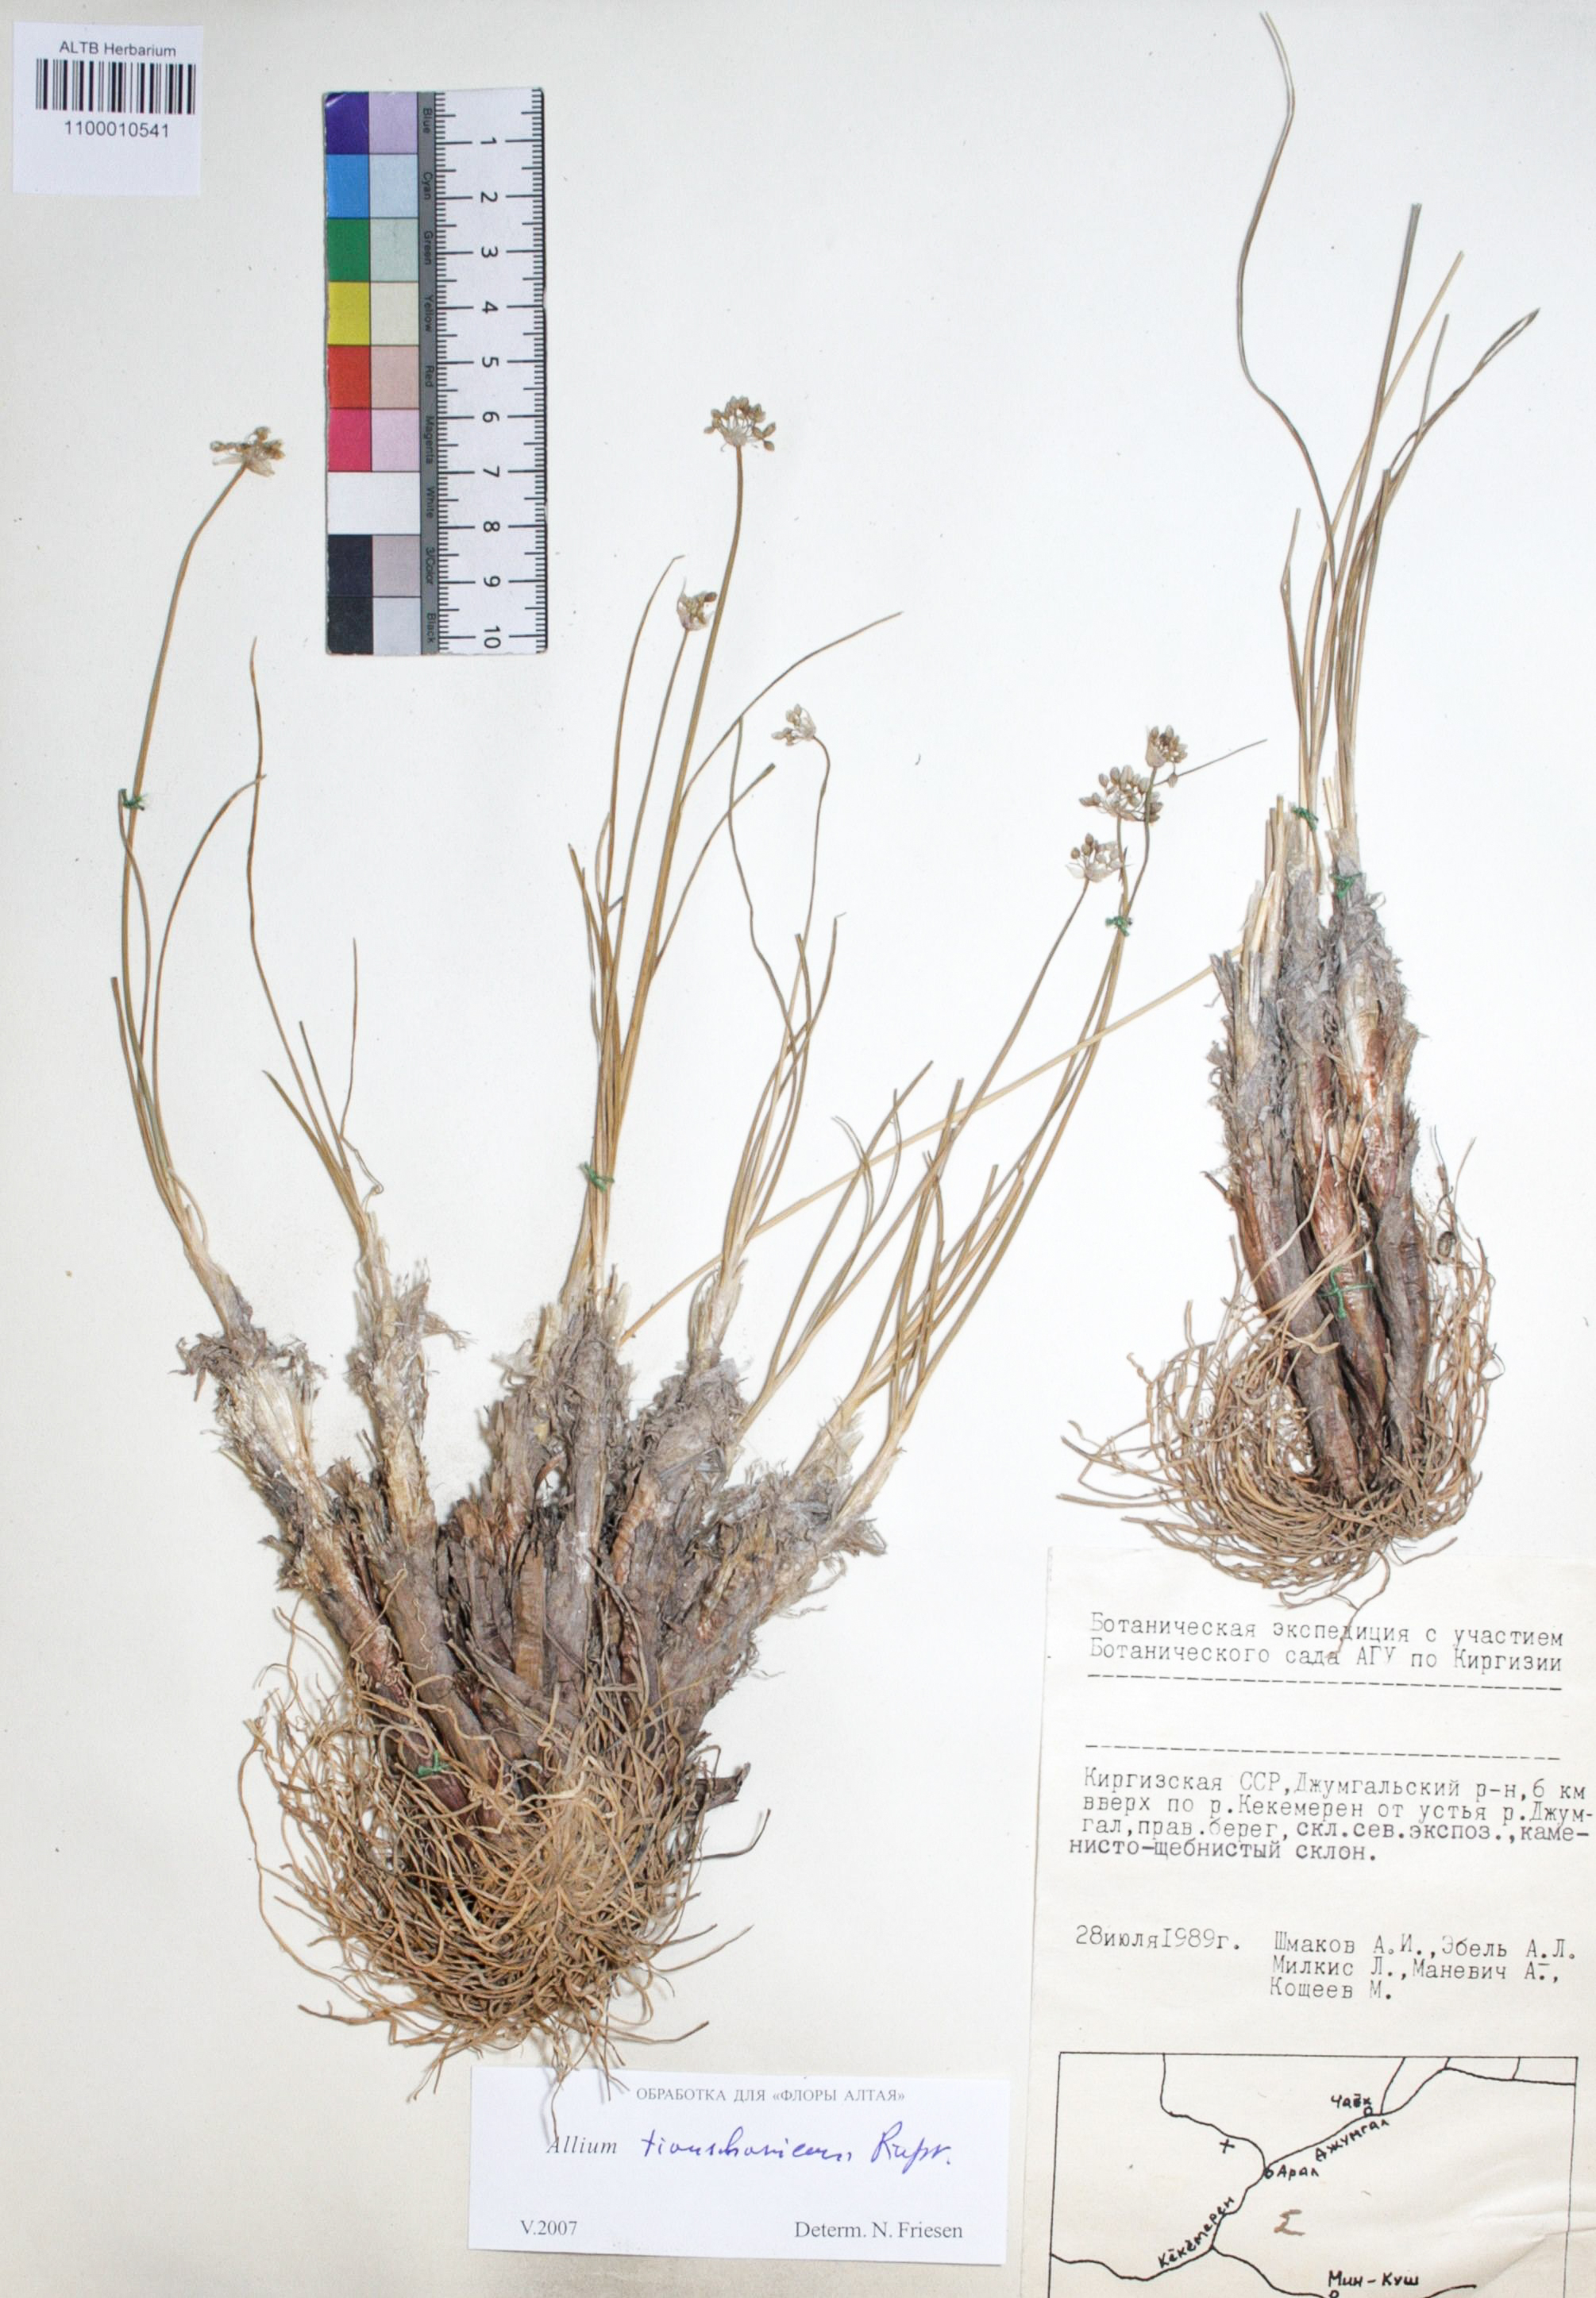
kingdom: Plantae
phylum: Tracheophyta
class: Liliopsida
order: Asparagales
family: Amaryllidaceae
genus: Allium
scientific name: Allium tianschanicum
